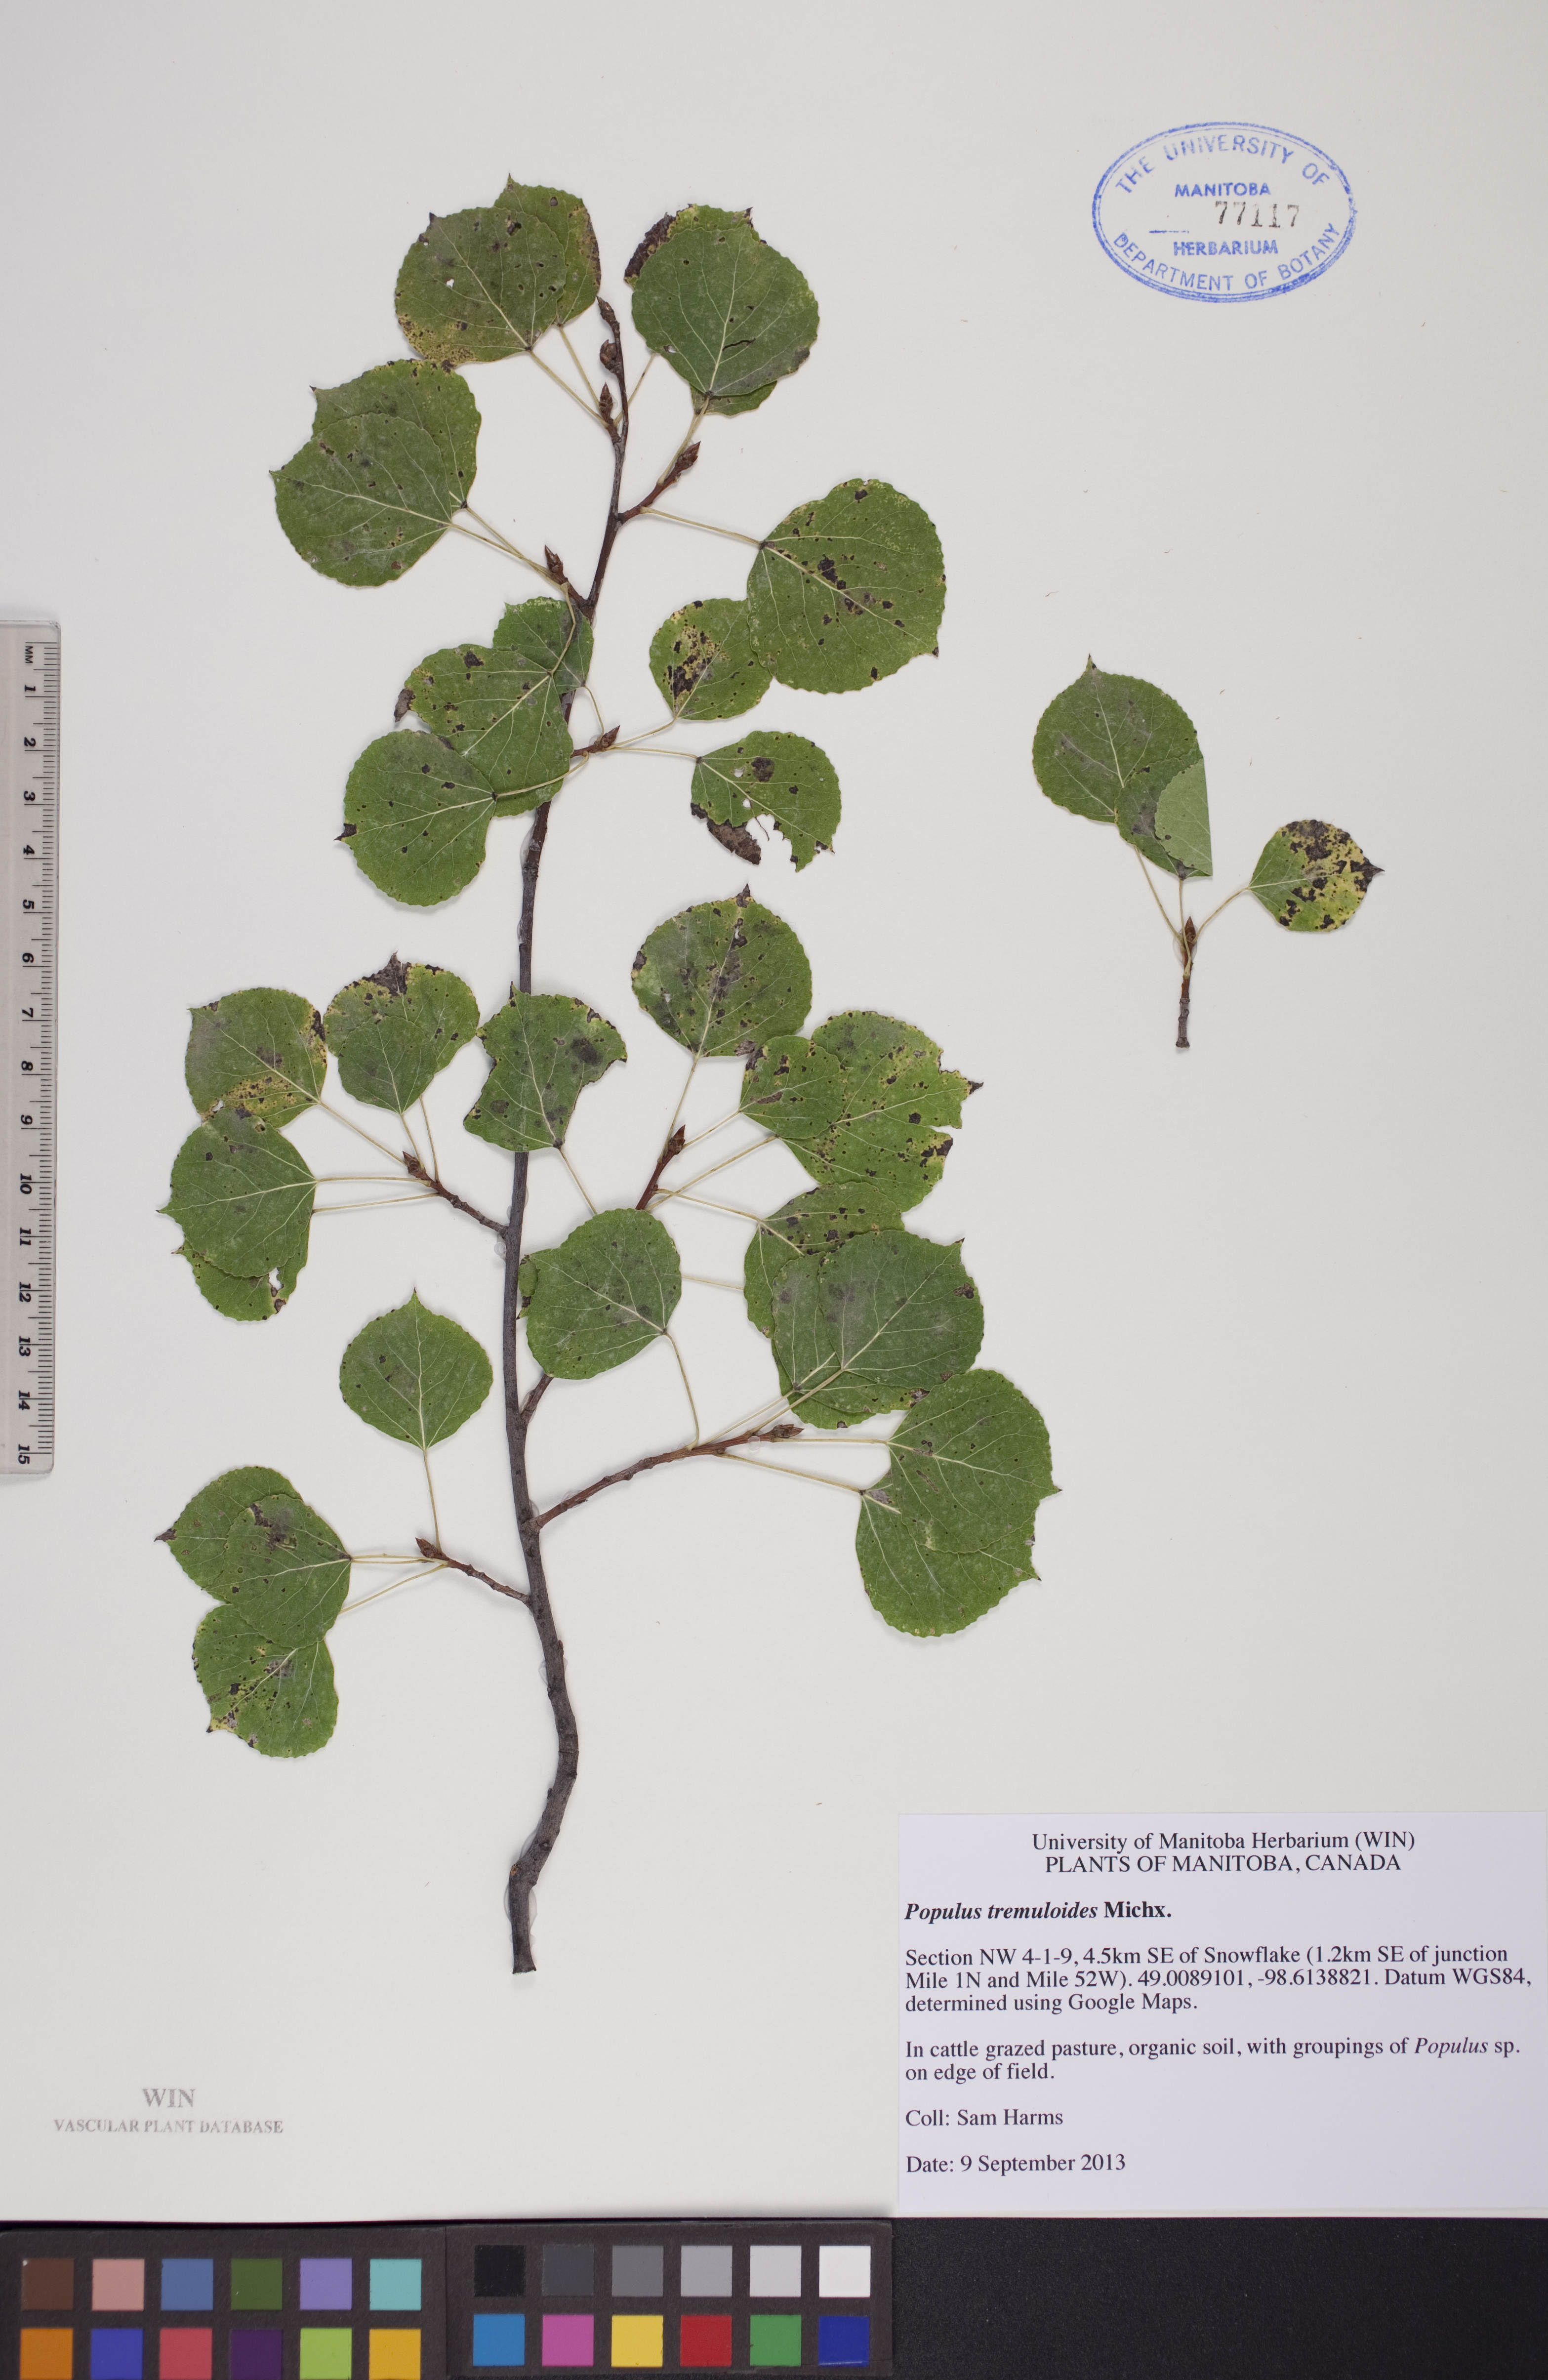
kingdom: Plantae
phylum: Tracheophyta
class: Magnoliopsida
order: Malpighiales
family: Salicaceae
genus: Populus
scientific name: Populus tremuloides
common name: Quaking aspen
